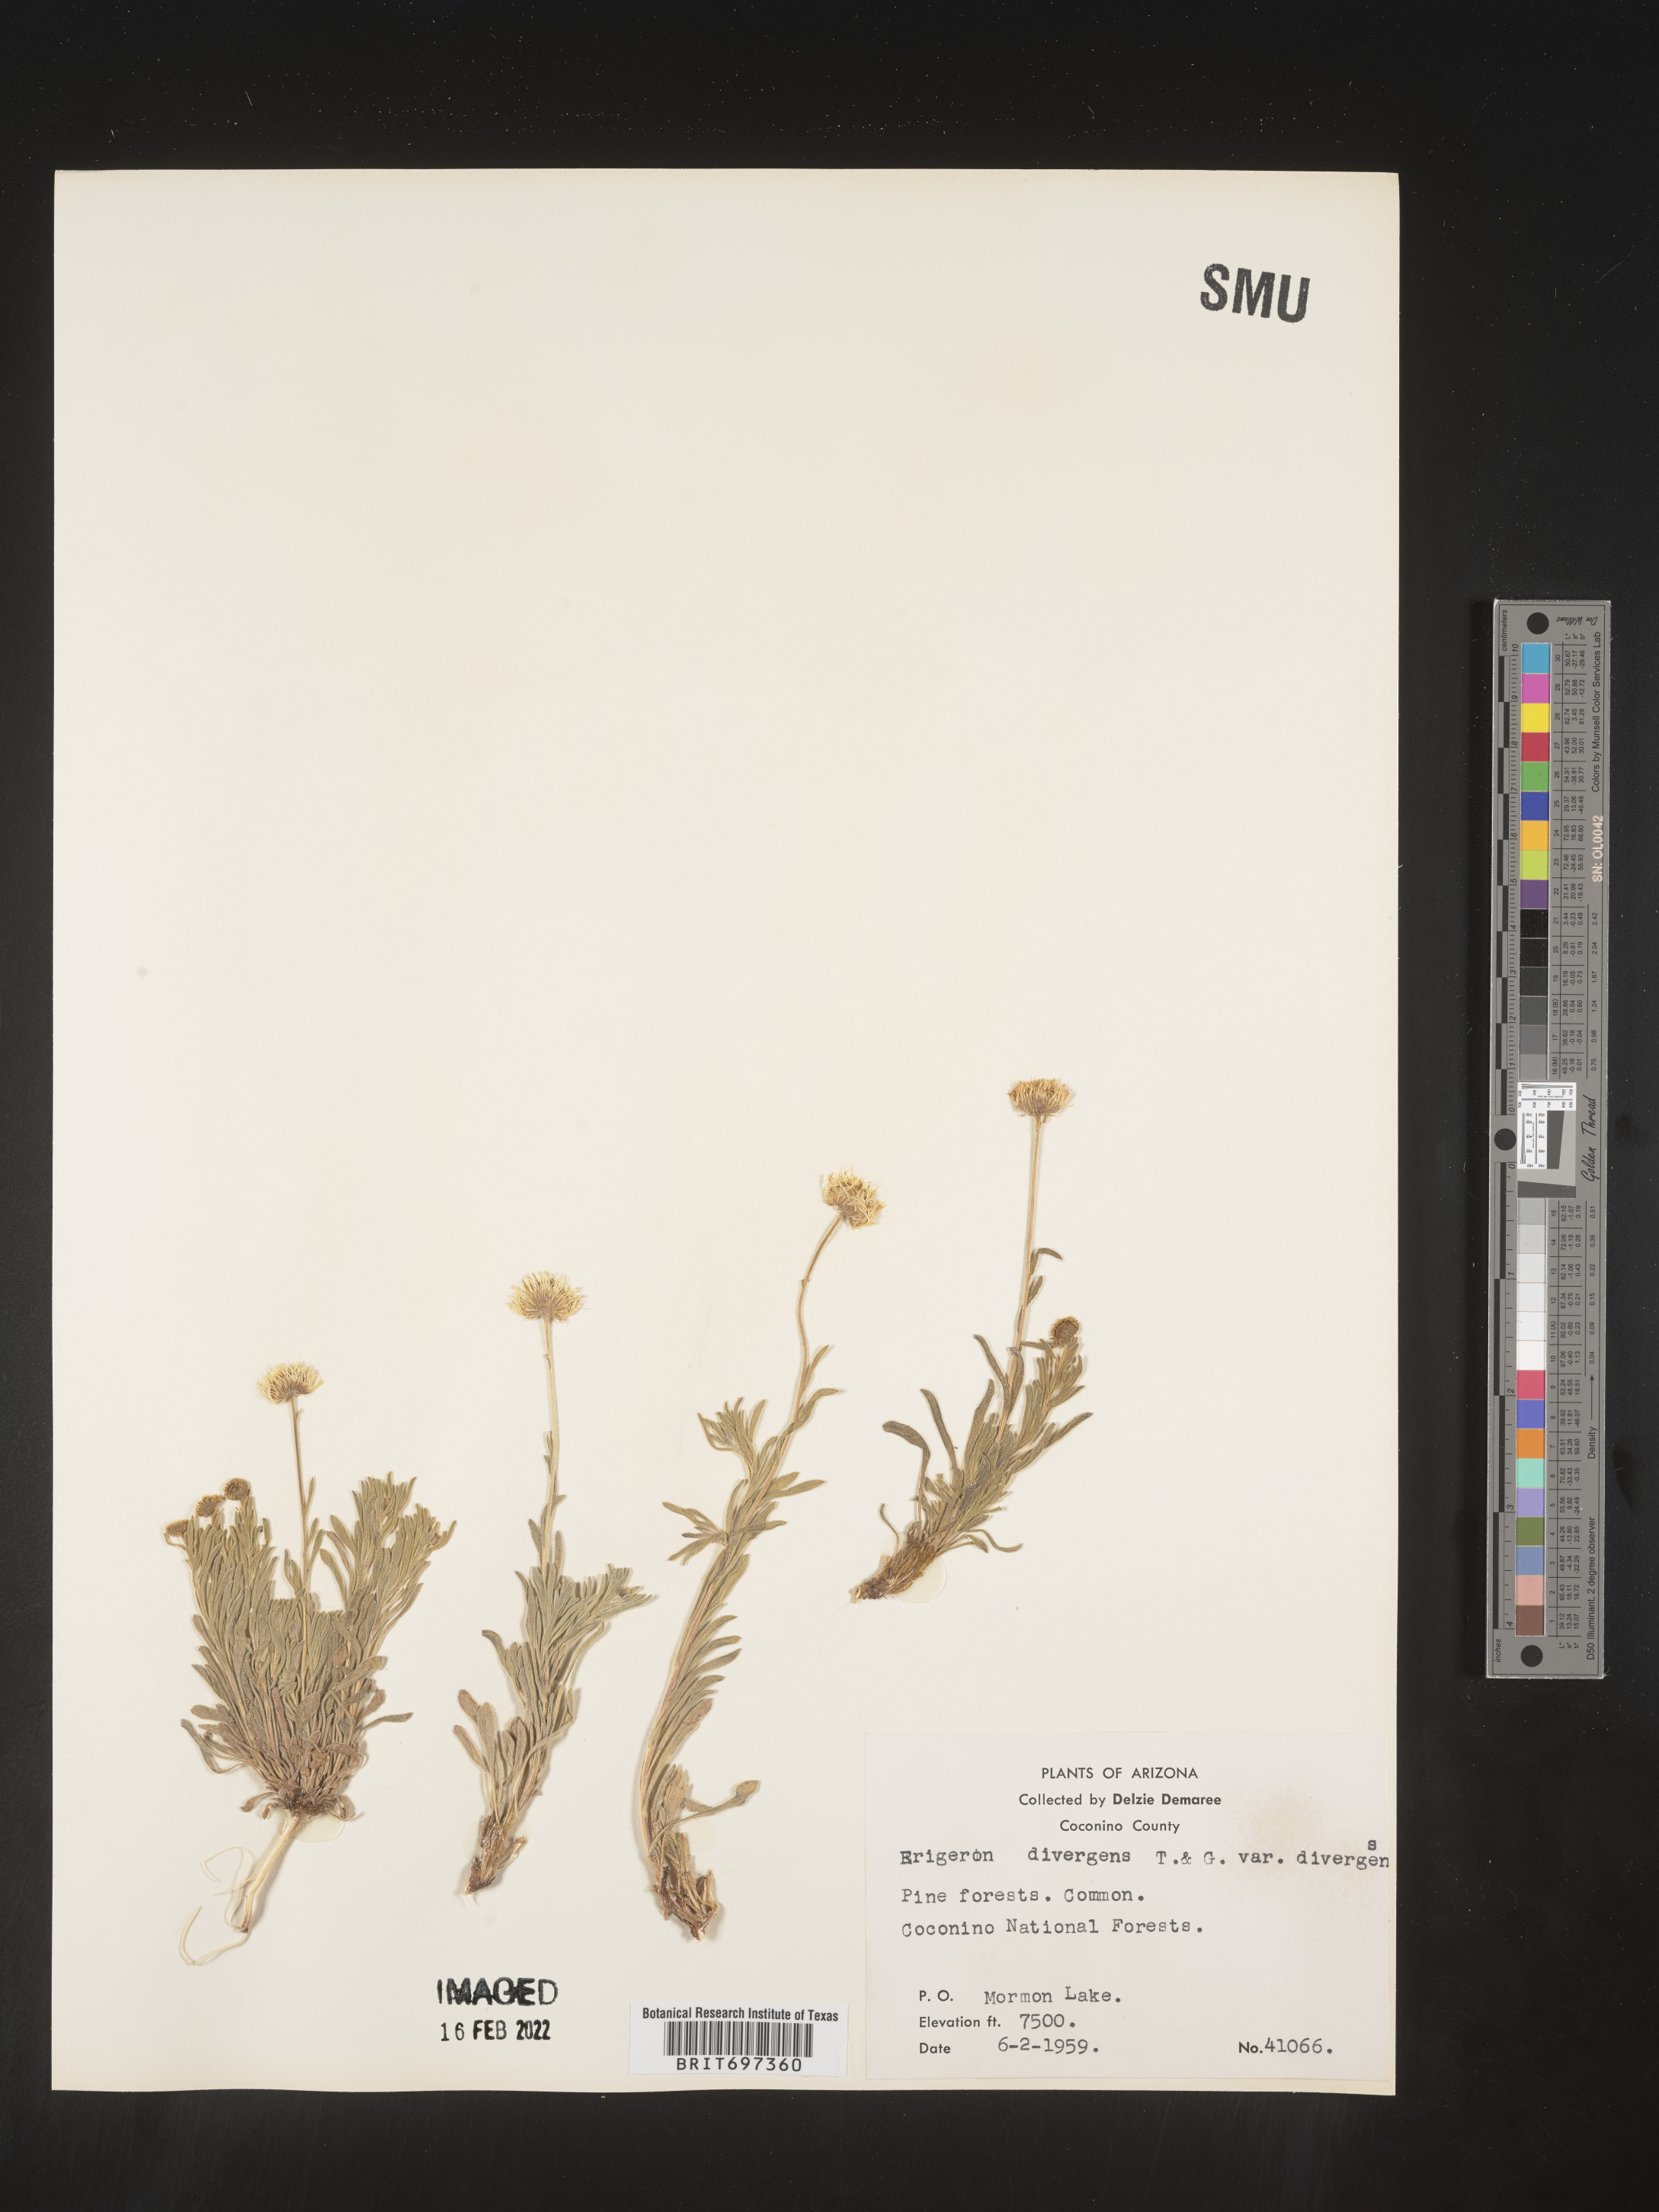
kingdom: Plantae
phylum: Tracheophyta
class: Magnoliopsida
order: Asterales
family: Asteraceae
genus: Erigeron
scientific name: Erigeron divergens
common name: Diffuse fleabane
